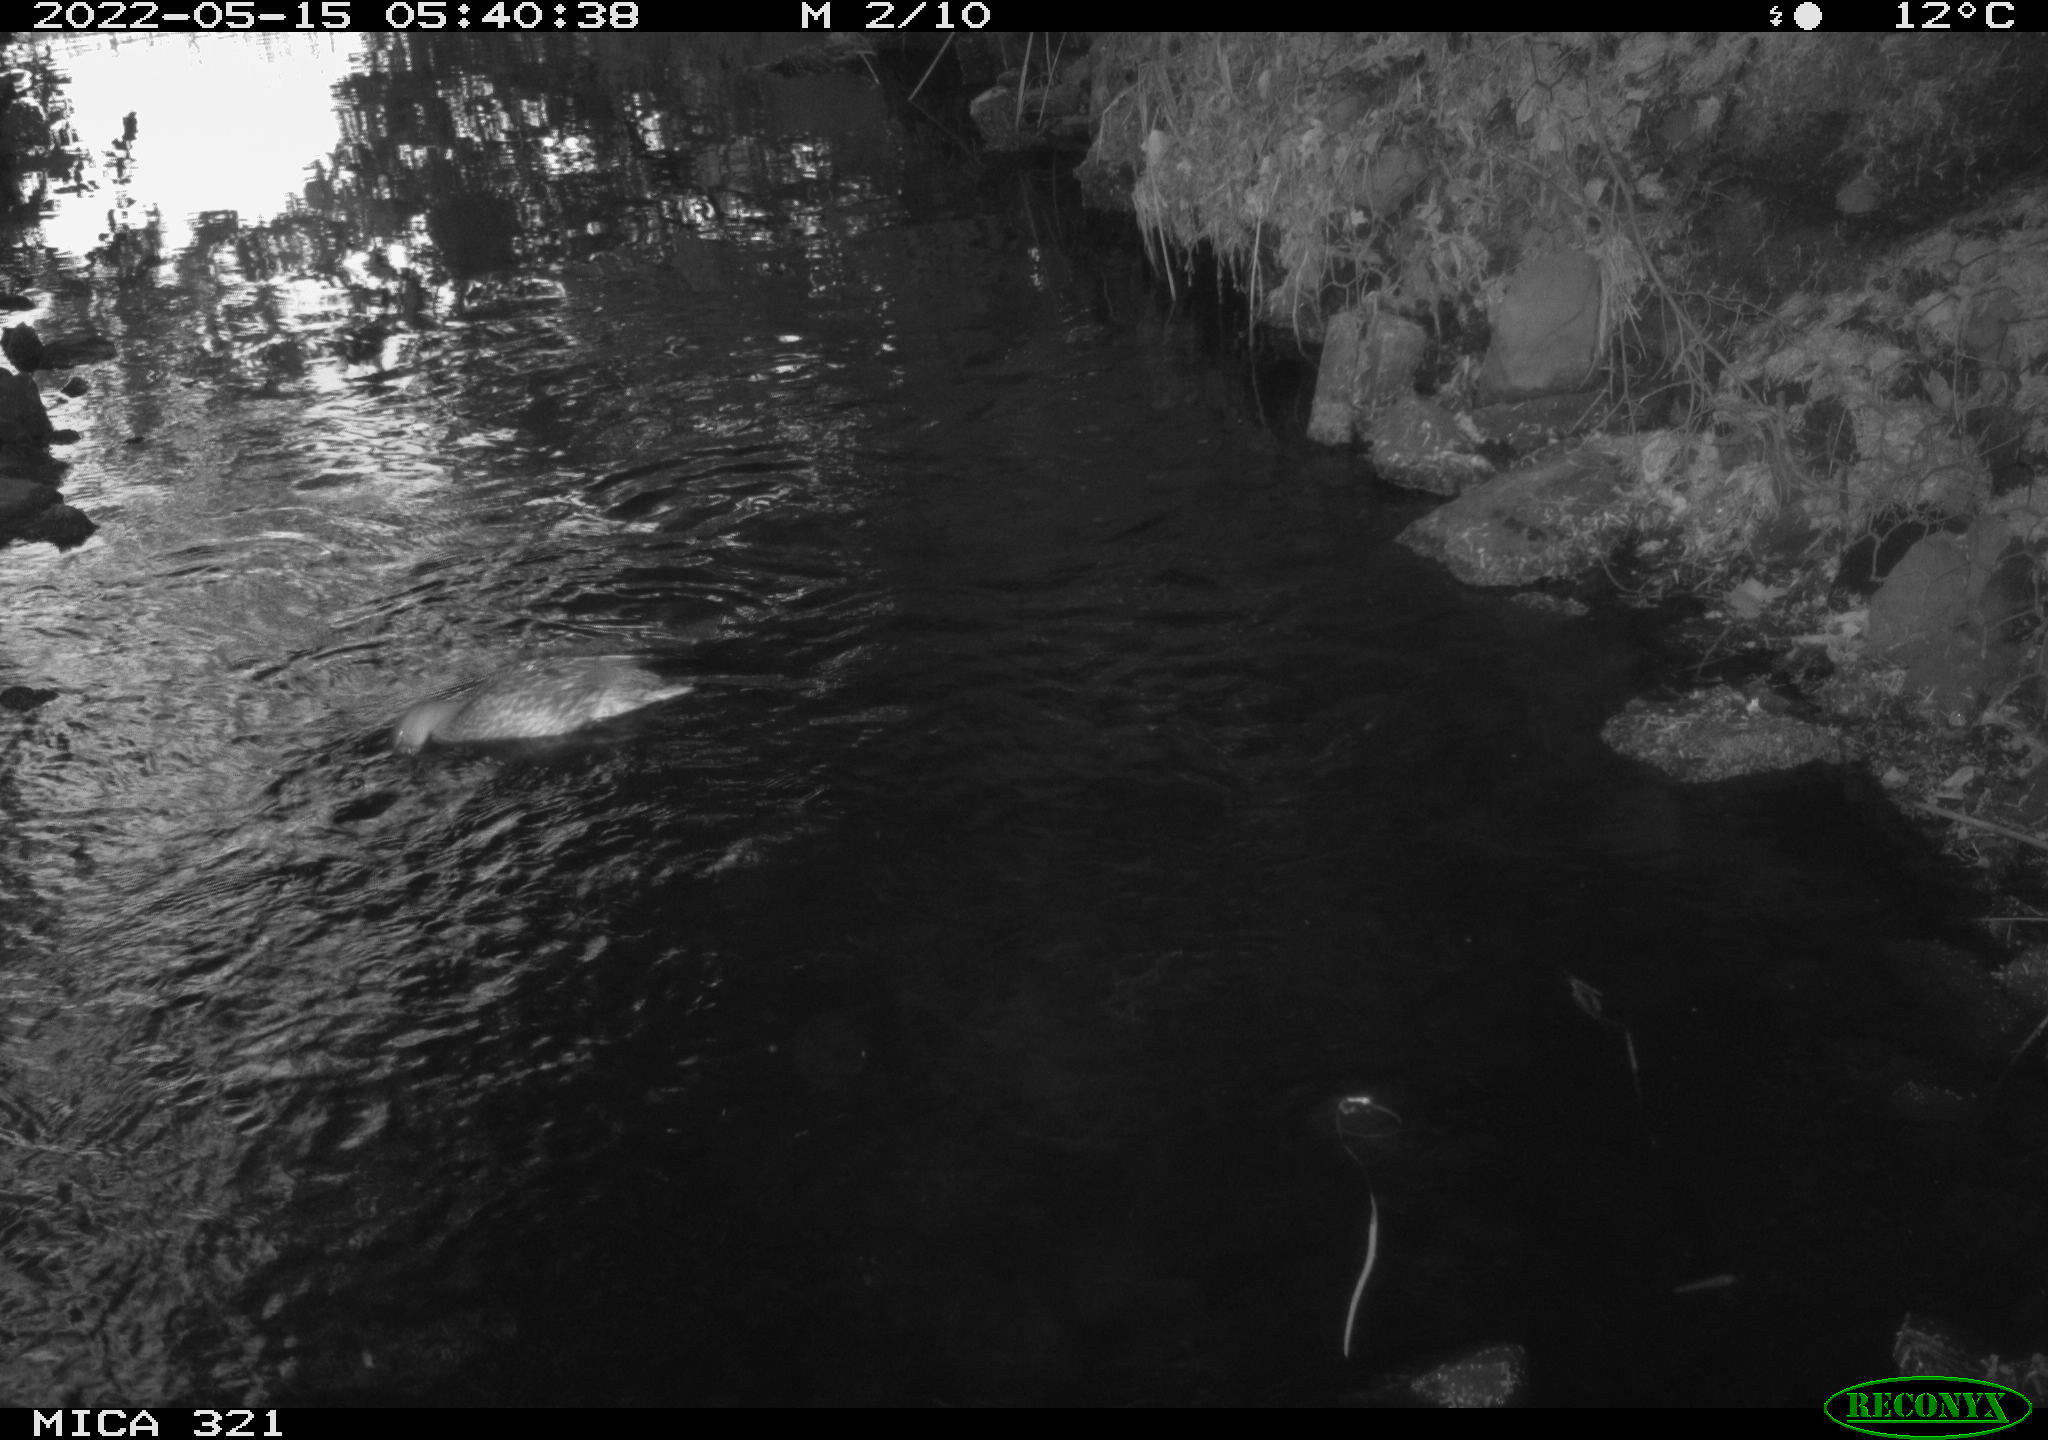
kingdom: Animalia
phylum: Chordata
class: Aves
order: Anseriformes
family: Anatidae
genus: Anas
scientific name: Anas platyrhynchos
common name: Mallard
